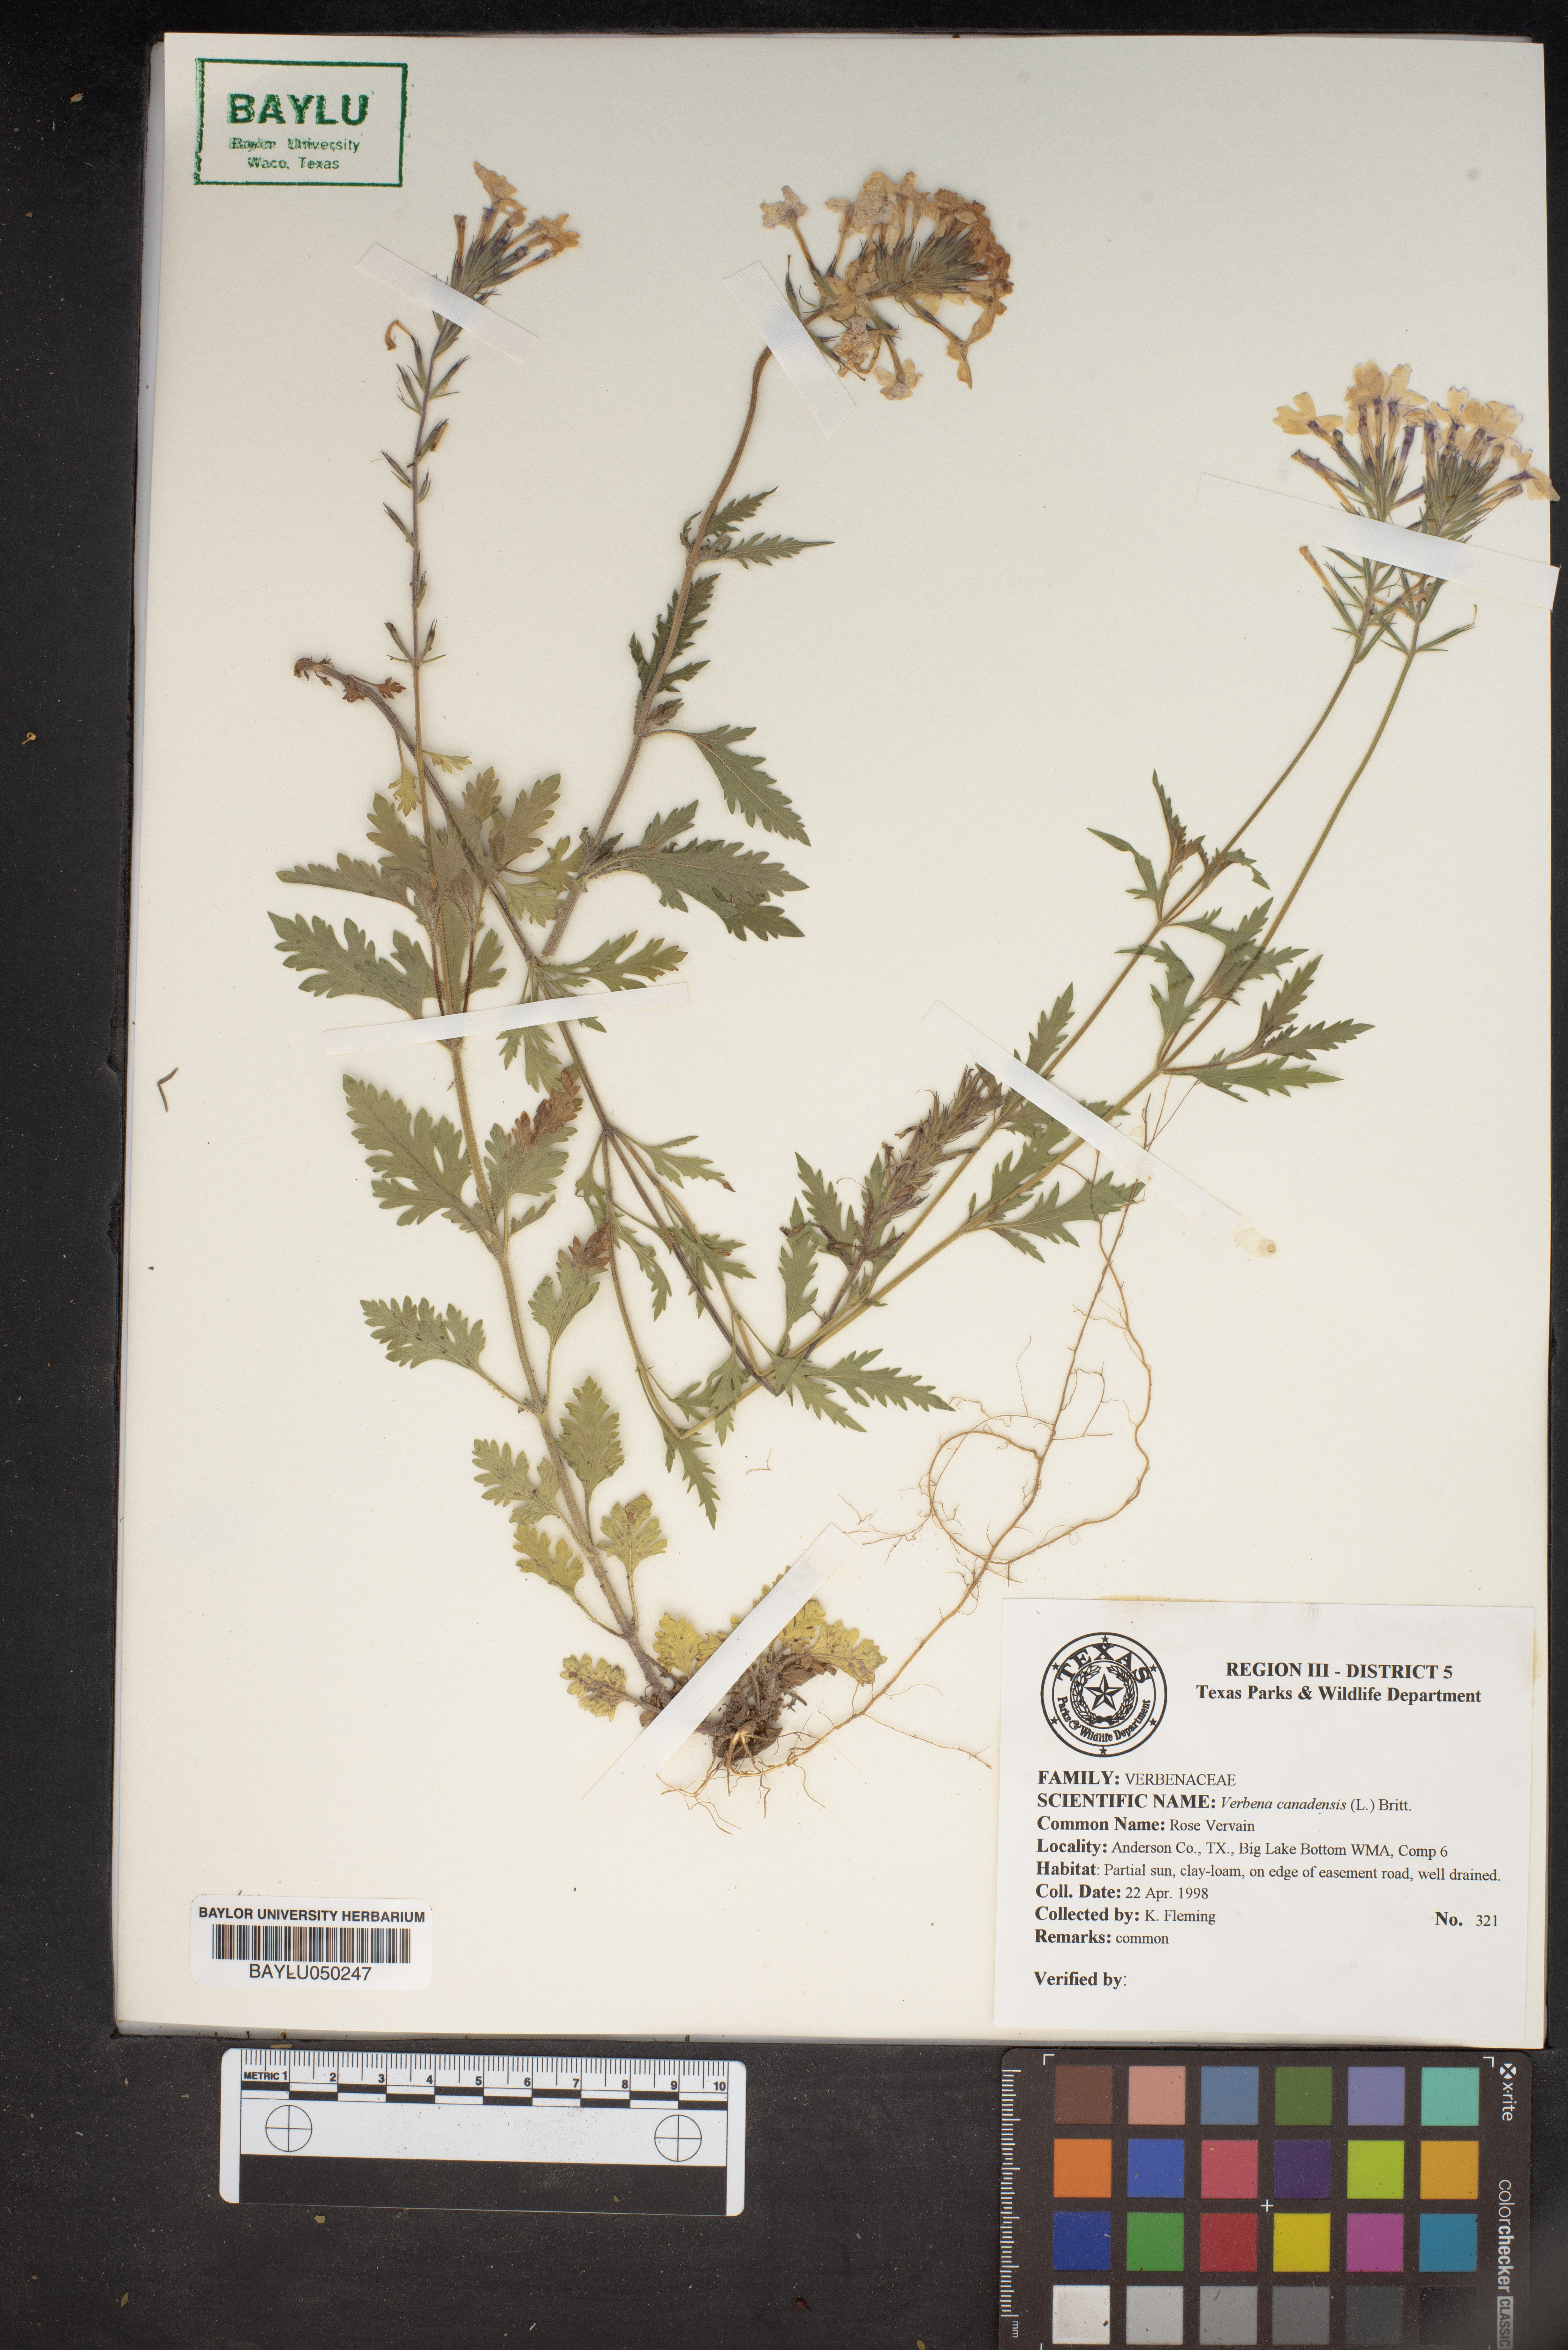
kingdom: Plantae
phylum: Tracheophyta
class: Magnoliopsida
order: Lamiales
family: Verbenaceae
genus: Verbena
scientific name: Verbena canadensis
